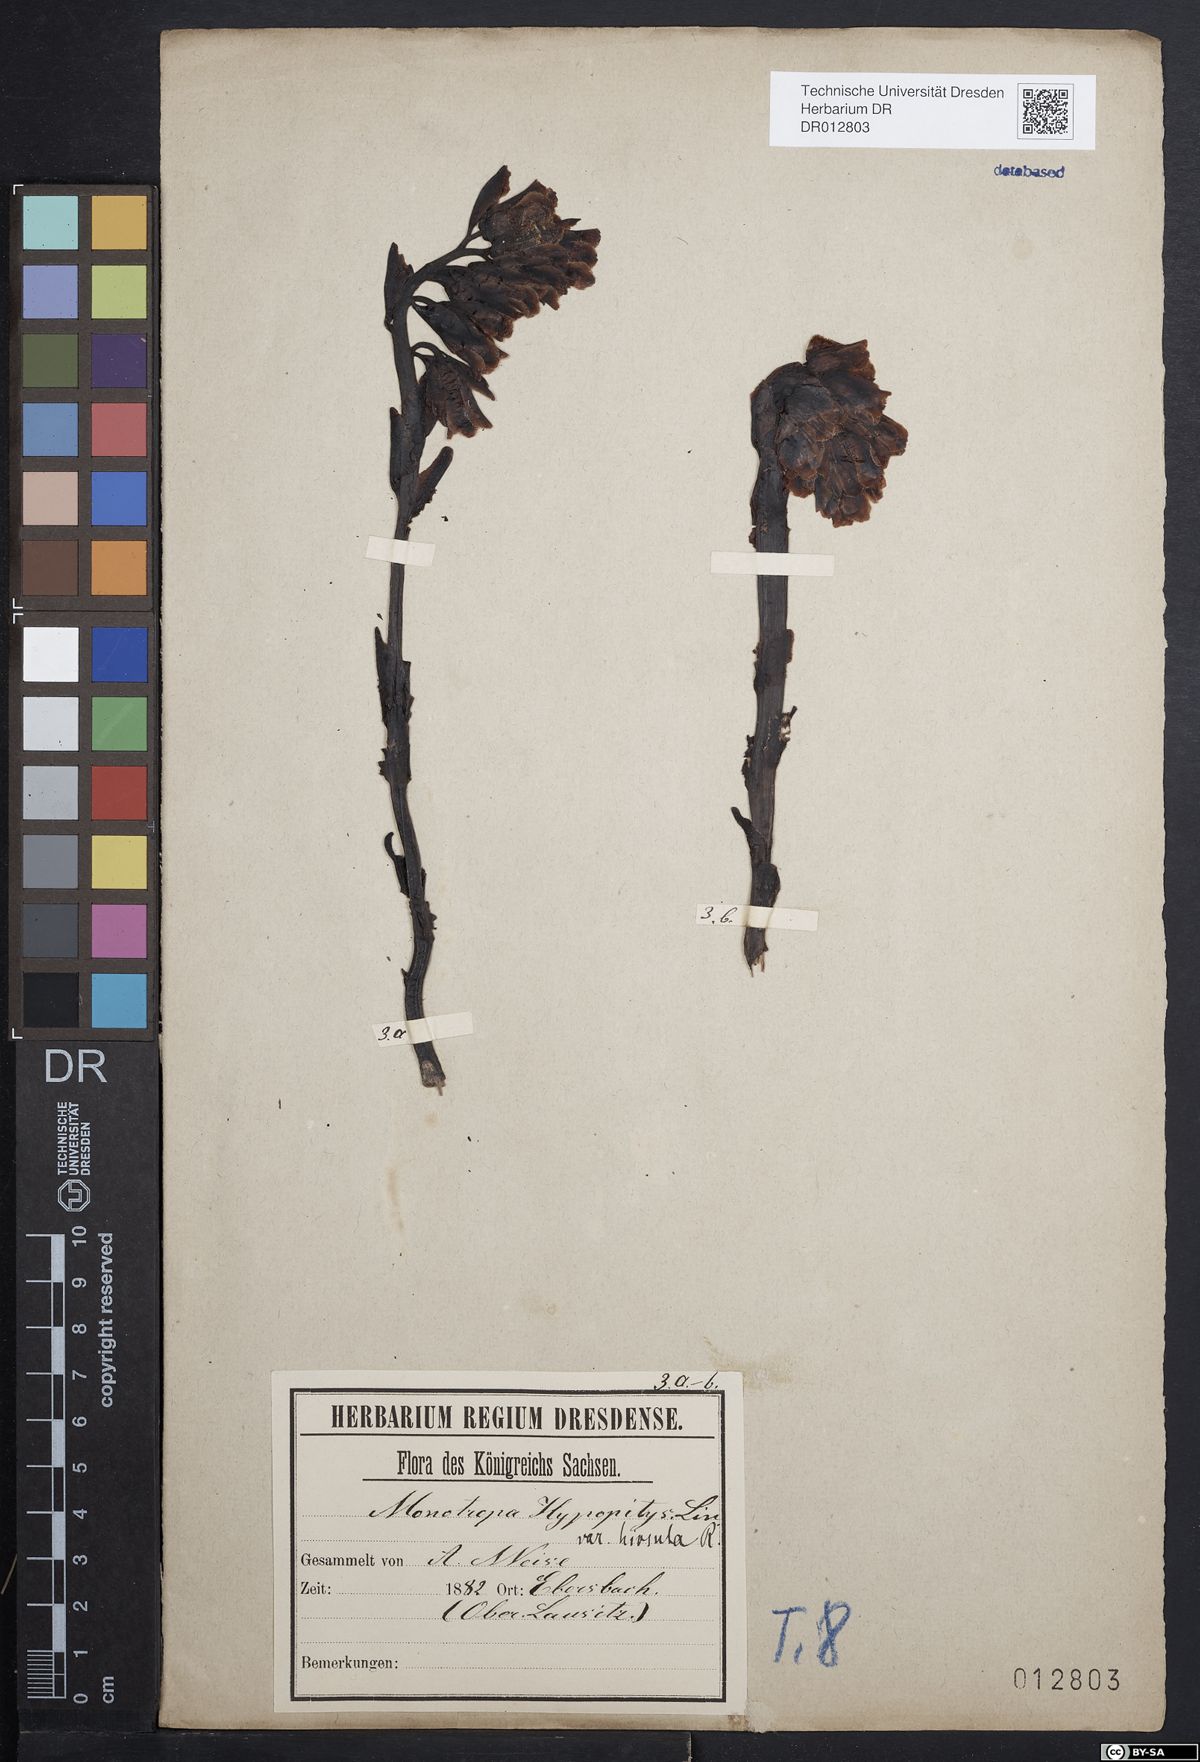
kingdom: Plantae
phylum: Tracheophyta
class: Magnoliopsida
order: Ericales
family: Ericaceae
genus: Hypopitys
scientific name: Hypopitys monotropa
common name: Yellow bird's-nest
